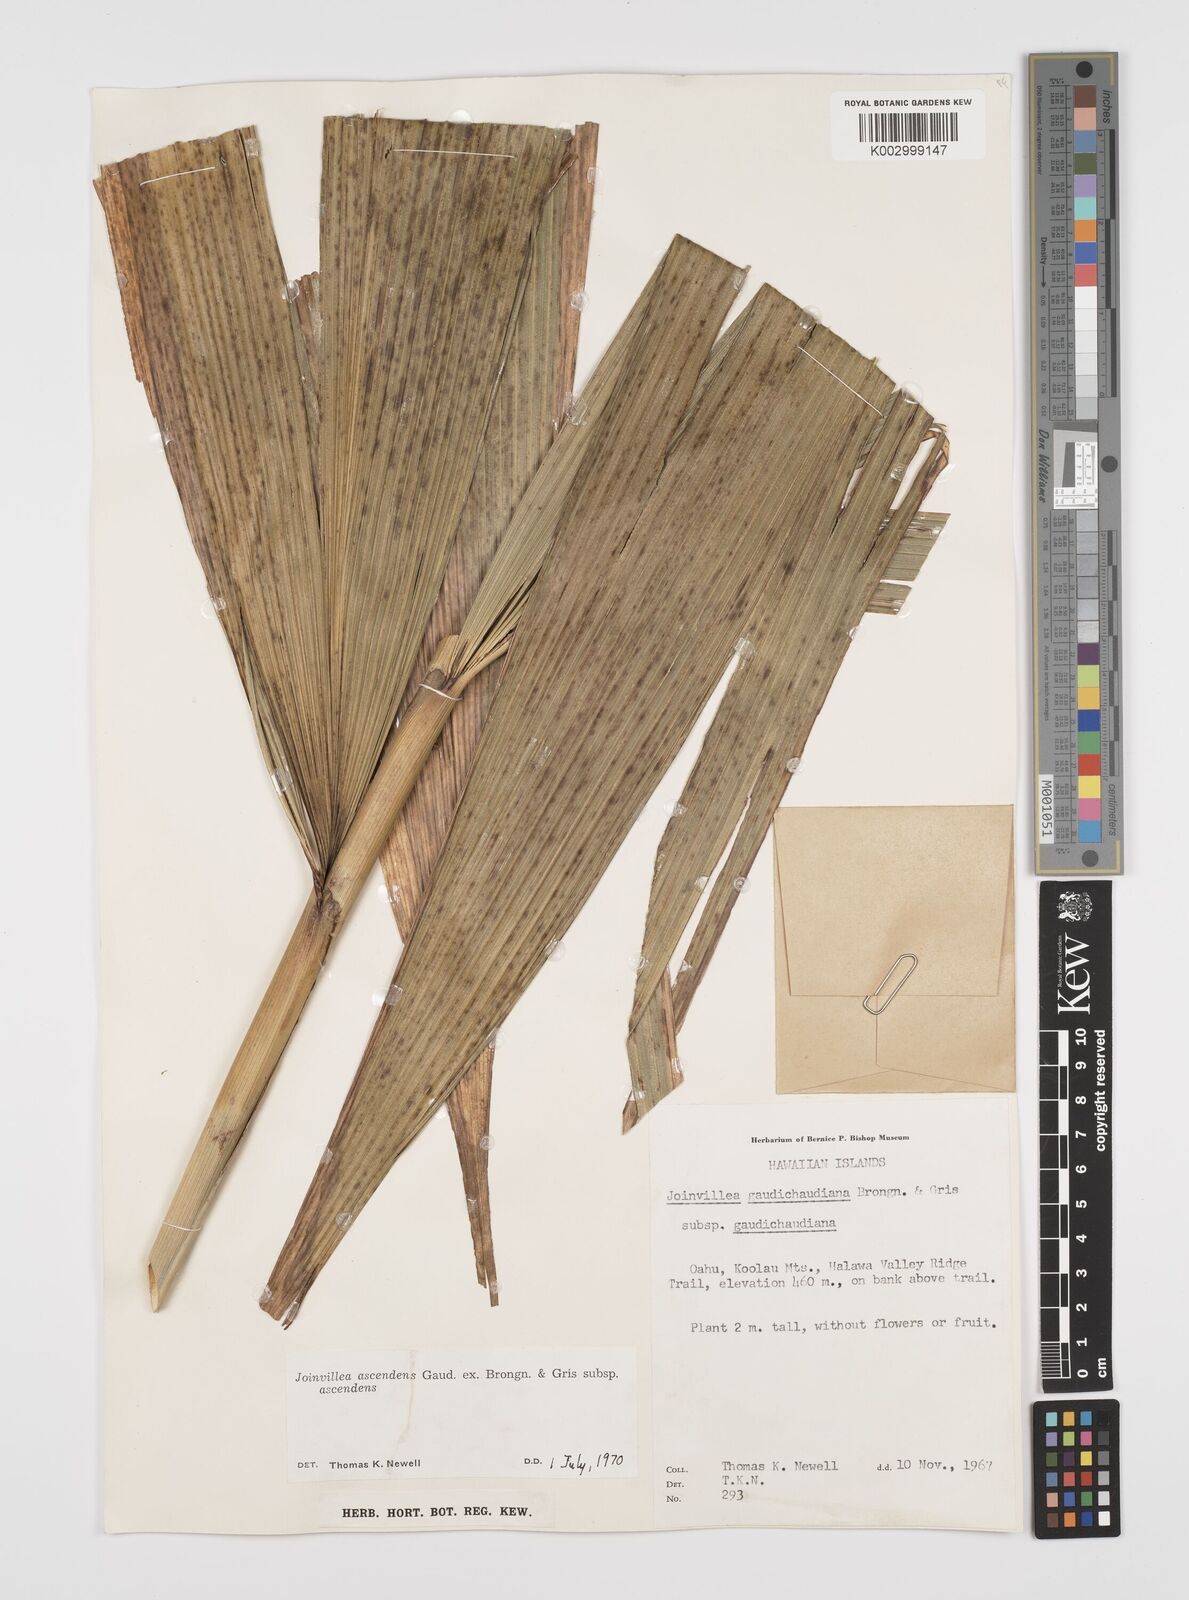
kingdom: Plantae
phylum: Tracheophyta
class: Liliopsida
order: Poales
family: Joinvilleaceae
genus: Joinvillea
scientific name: Joinvillea ascendens
